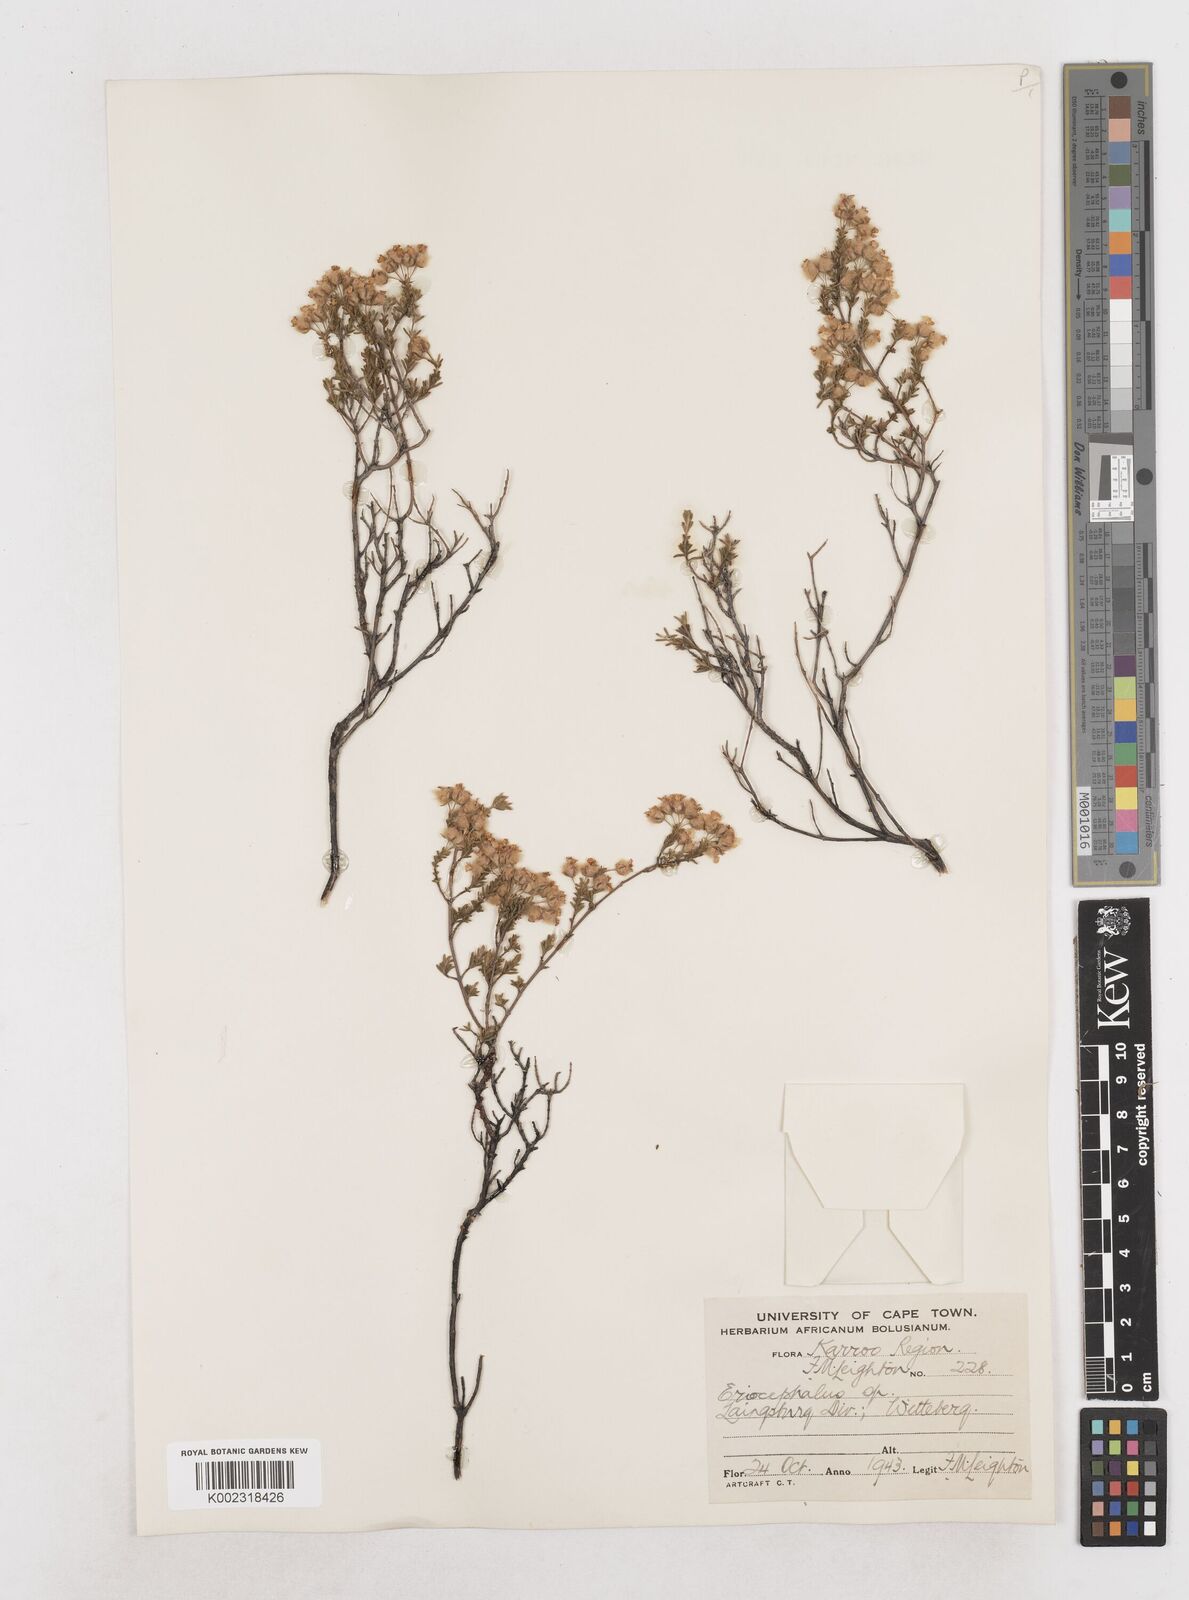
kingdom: Plantae
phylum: Tracheophyta
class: Magnoliopsida
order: Asterales
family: Asteraceae
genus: Eriocephalus
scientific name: Eriocephalus
